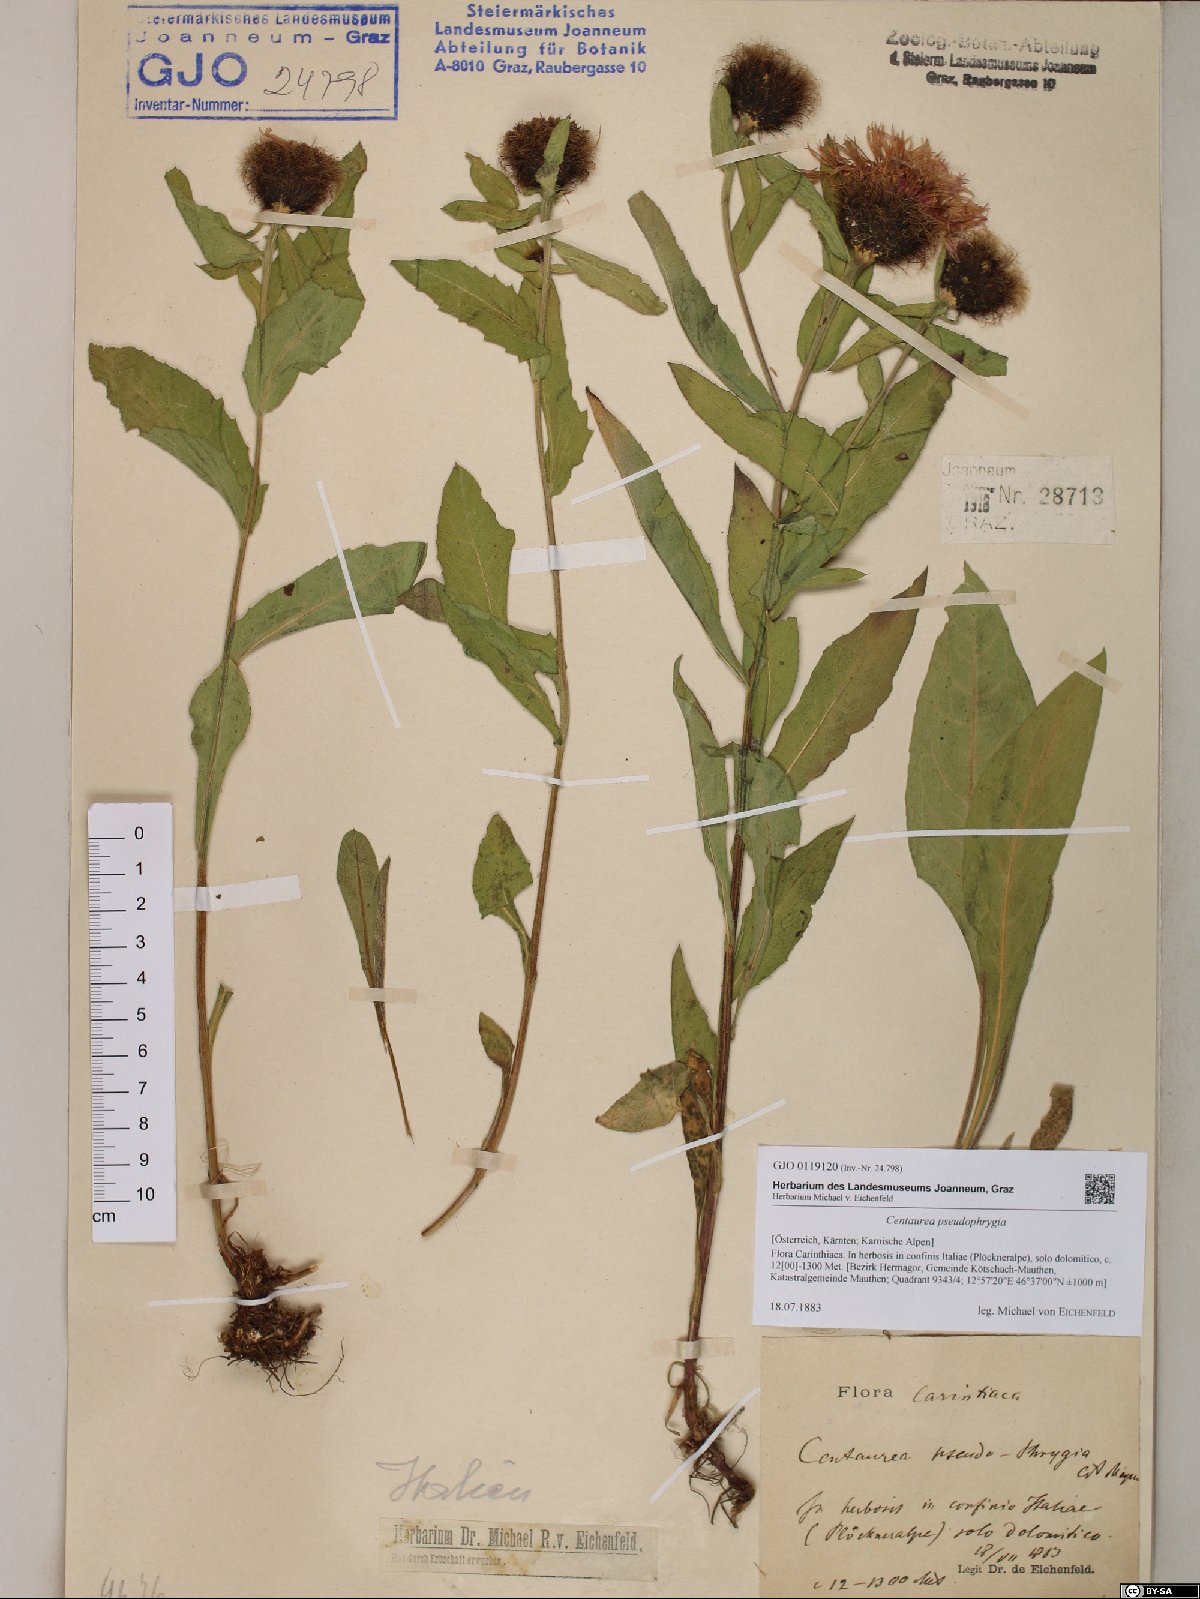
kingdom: Plantae
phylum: Tracheophyta
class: Magnoliopsida
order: Asterales
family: Asteraceae
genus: Centaurea
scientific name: Centaurea pseudophrygia
